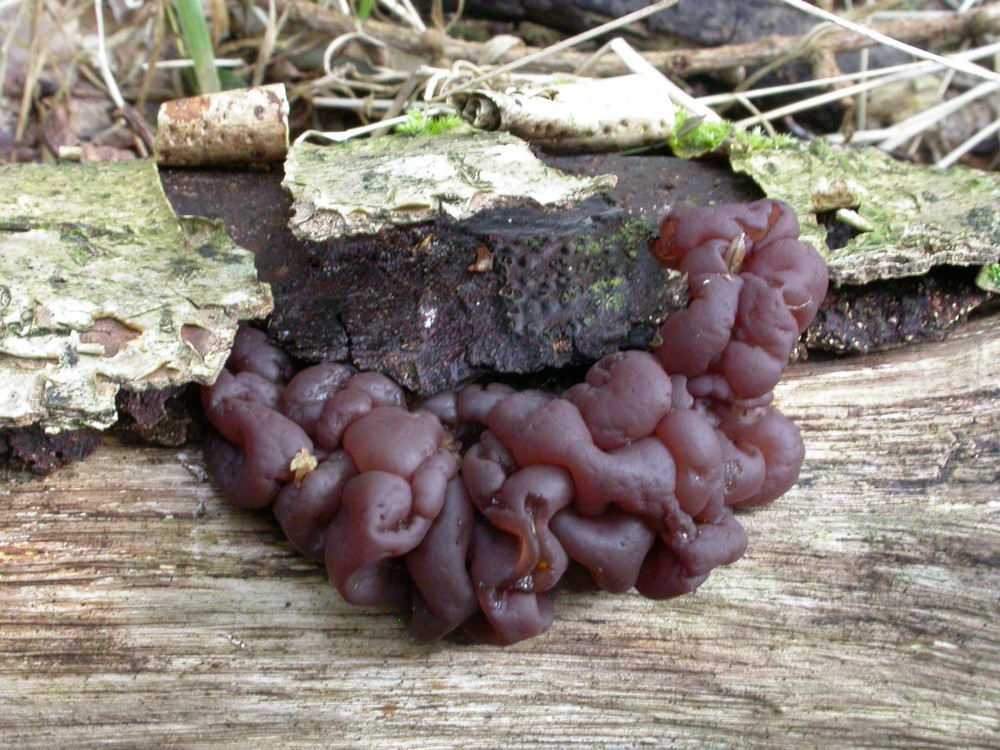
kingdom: Fungi
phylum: Ascomycota
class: Leotiomycetes
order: Helotiales
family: Gelatinodiscaceae
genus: Ascotremella
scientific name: Ascotremella faginea
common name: hjerne-bævreskive
